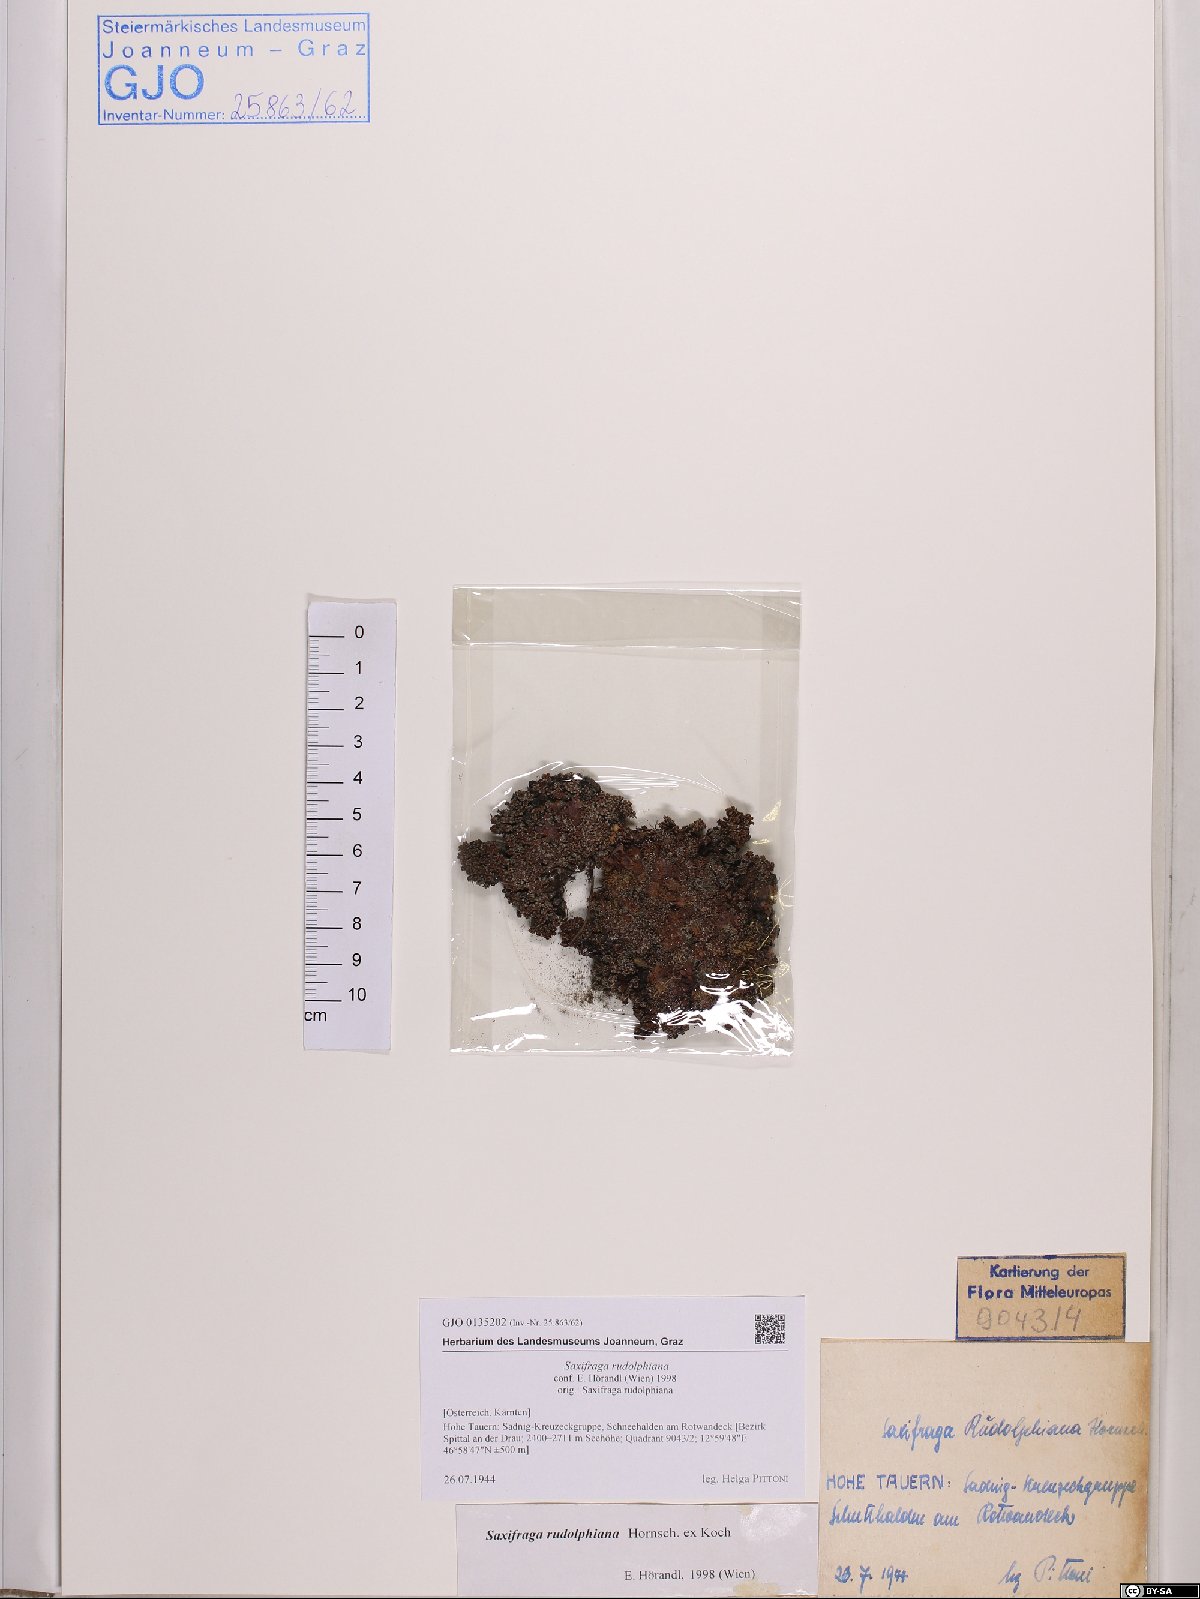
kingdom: Plantae
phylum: Tracheophyta
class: Magnoliopsida
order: Saxifragales
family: Saxifragaceae
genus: Saxifraga
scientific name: Saxifraga oppositifolia
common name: Purple saxifrage
